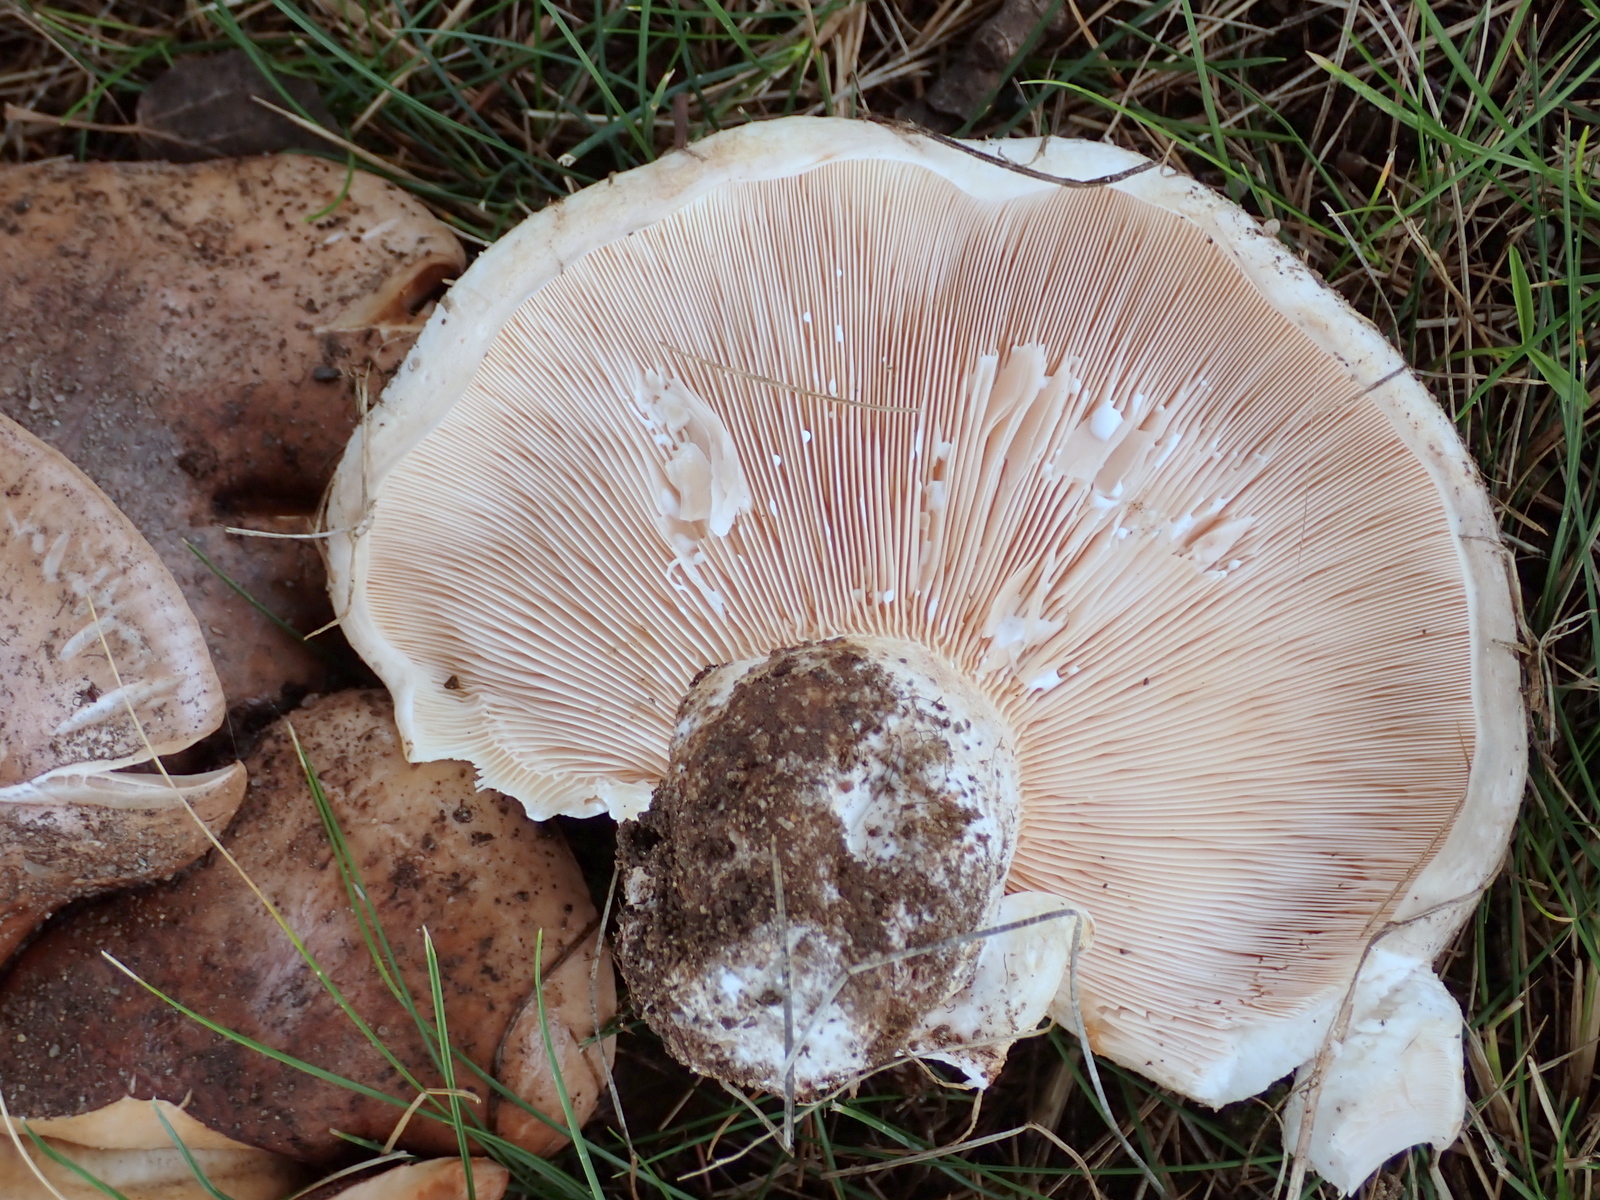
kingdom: Fungi
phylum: Basidiomycota
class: Agaricomycetes
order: Russulales
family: Russulaceae
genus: Lactarius
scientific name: Lactarius controversus
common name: rosabladet mælkehat
